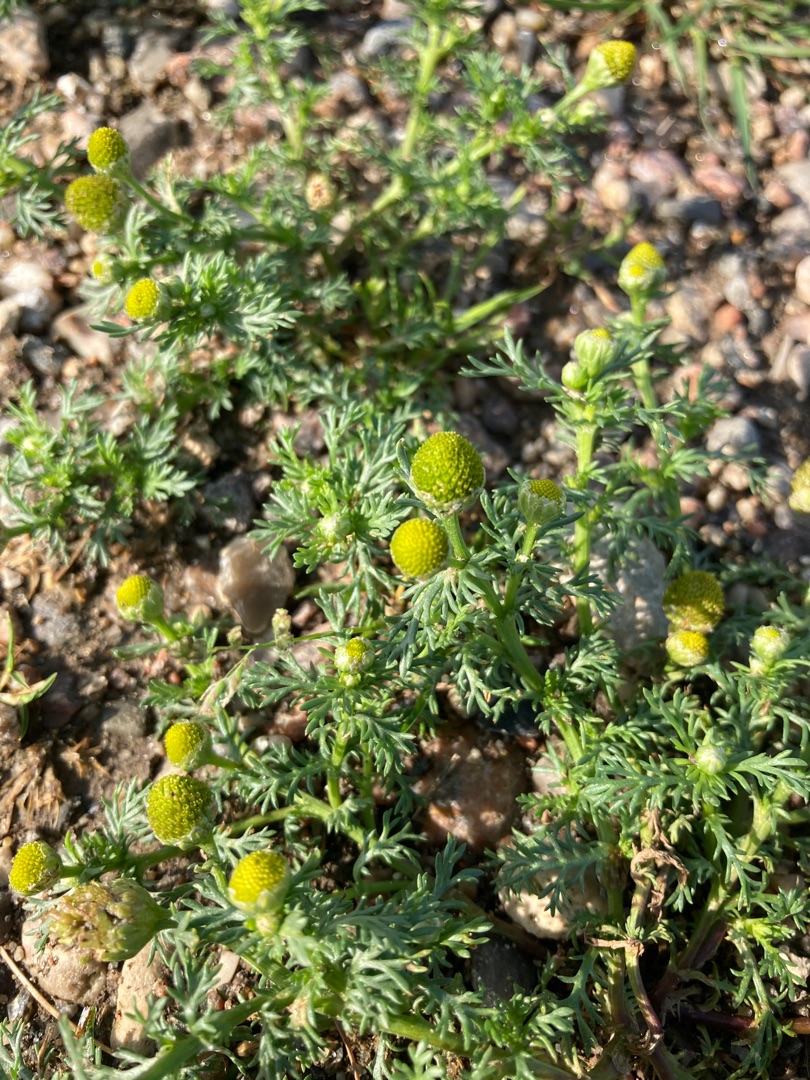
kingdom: Plantae
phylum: Tracheophyta
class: Magnoliopsida
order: Asterales
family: Asteraceae
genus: Matricaria
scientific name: Matricaria discoidea
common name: Skive-kamille
